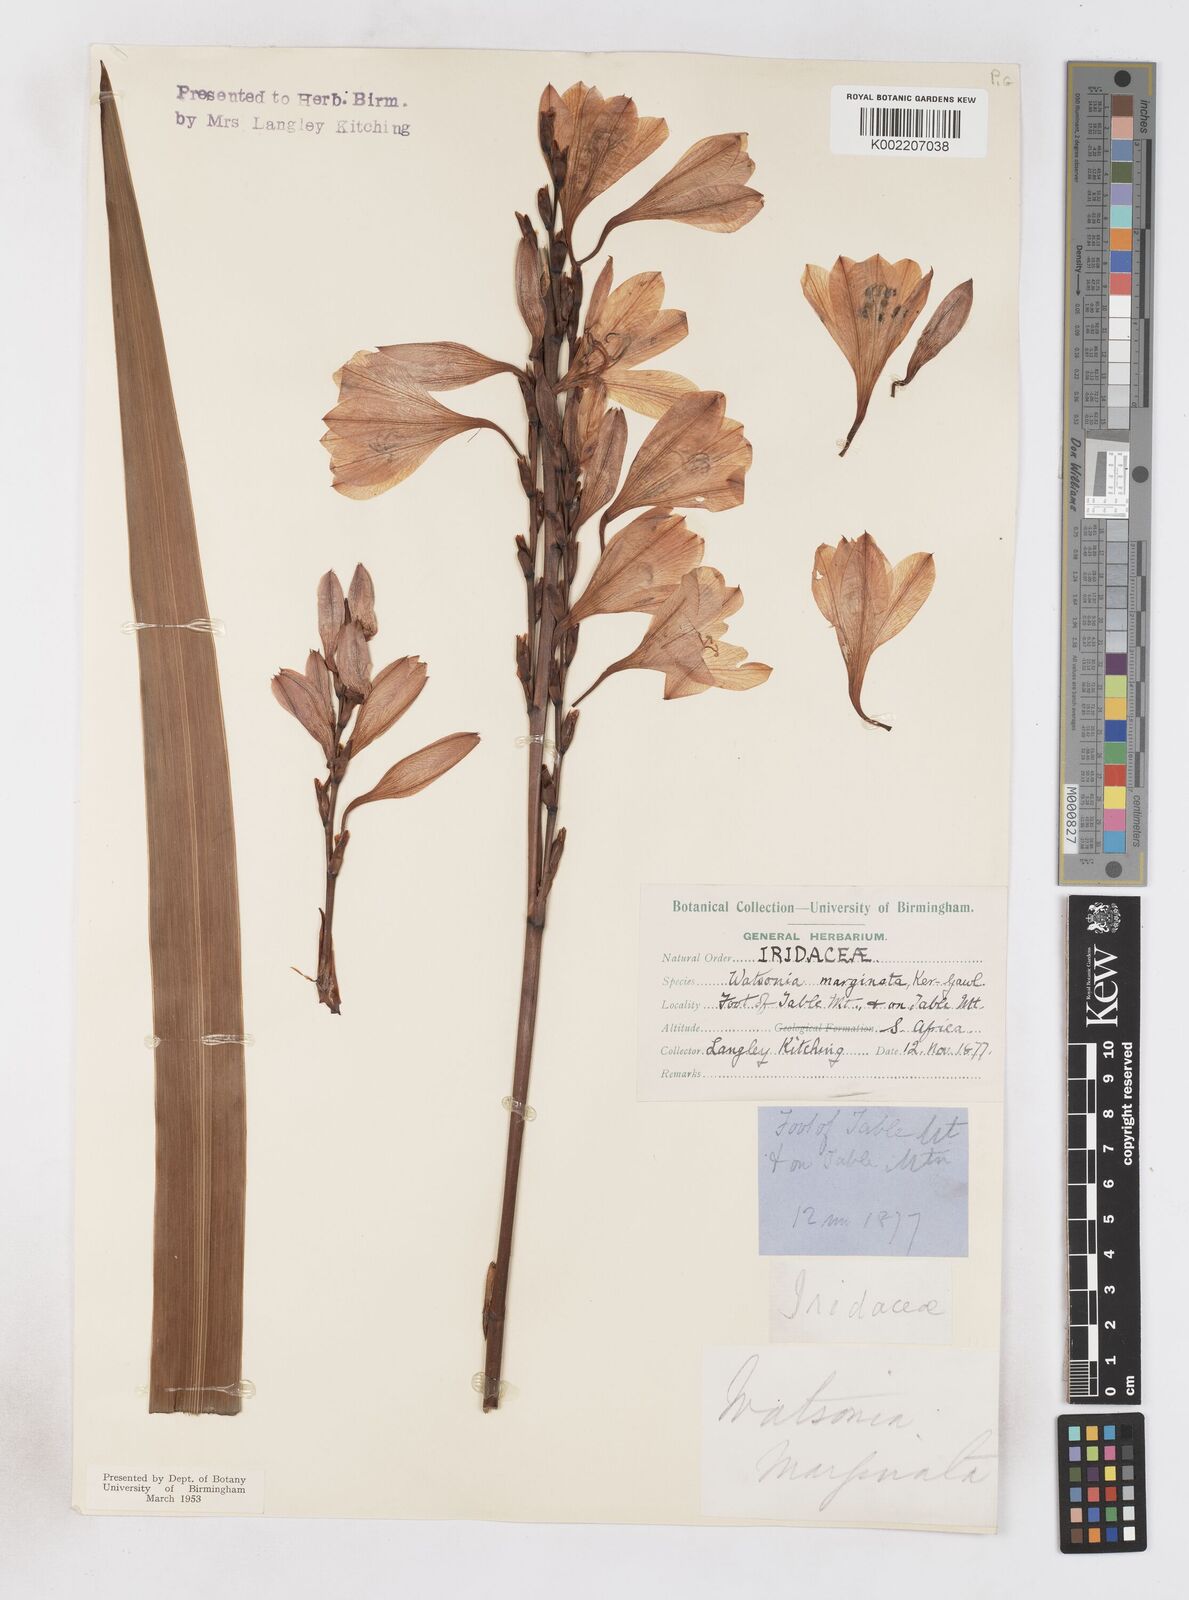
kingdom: Plantae
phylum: Tracheophyta
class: Liliopsida
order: Asparagales
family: Iridaceae
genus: Watsonia
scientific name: Watsonia borbonica
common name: Bugle-lily
